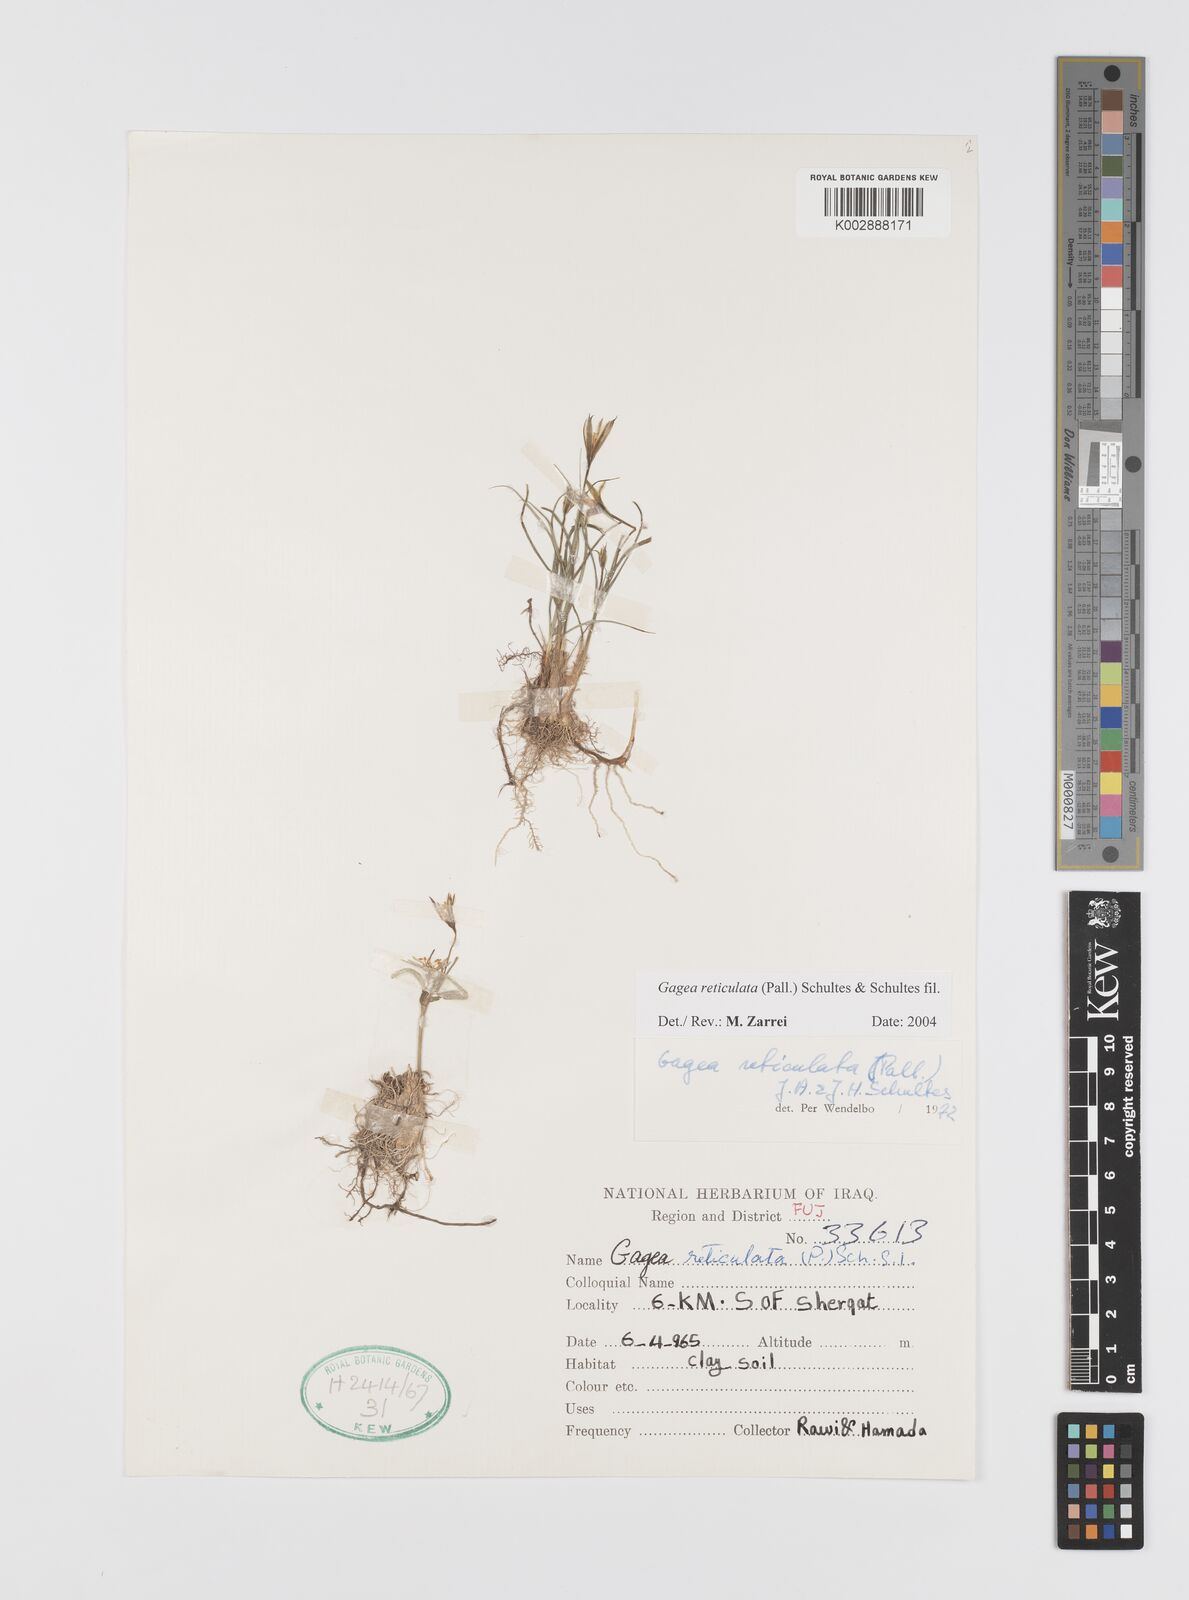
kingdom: Plantae
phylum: Tracheophyta
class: Liliopsida
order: Liliales
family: Liliaceae
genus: Gagea
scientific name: Gagea reticulata
